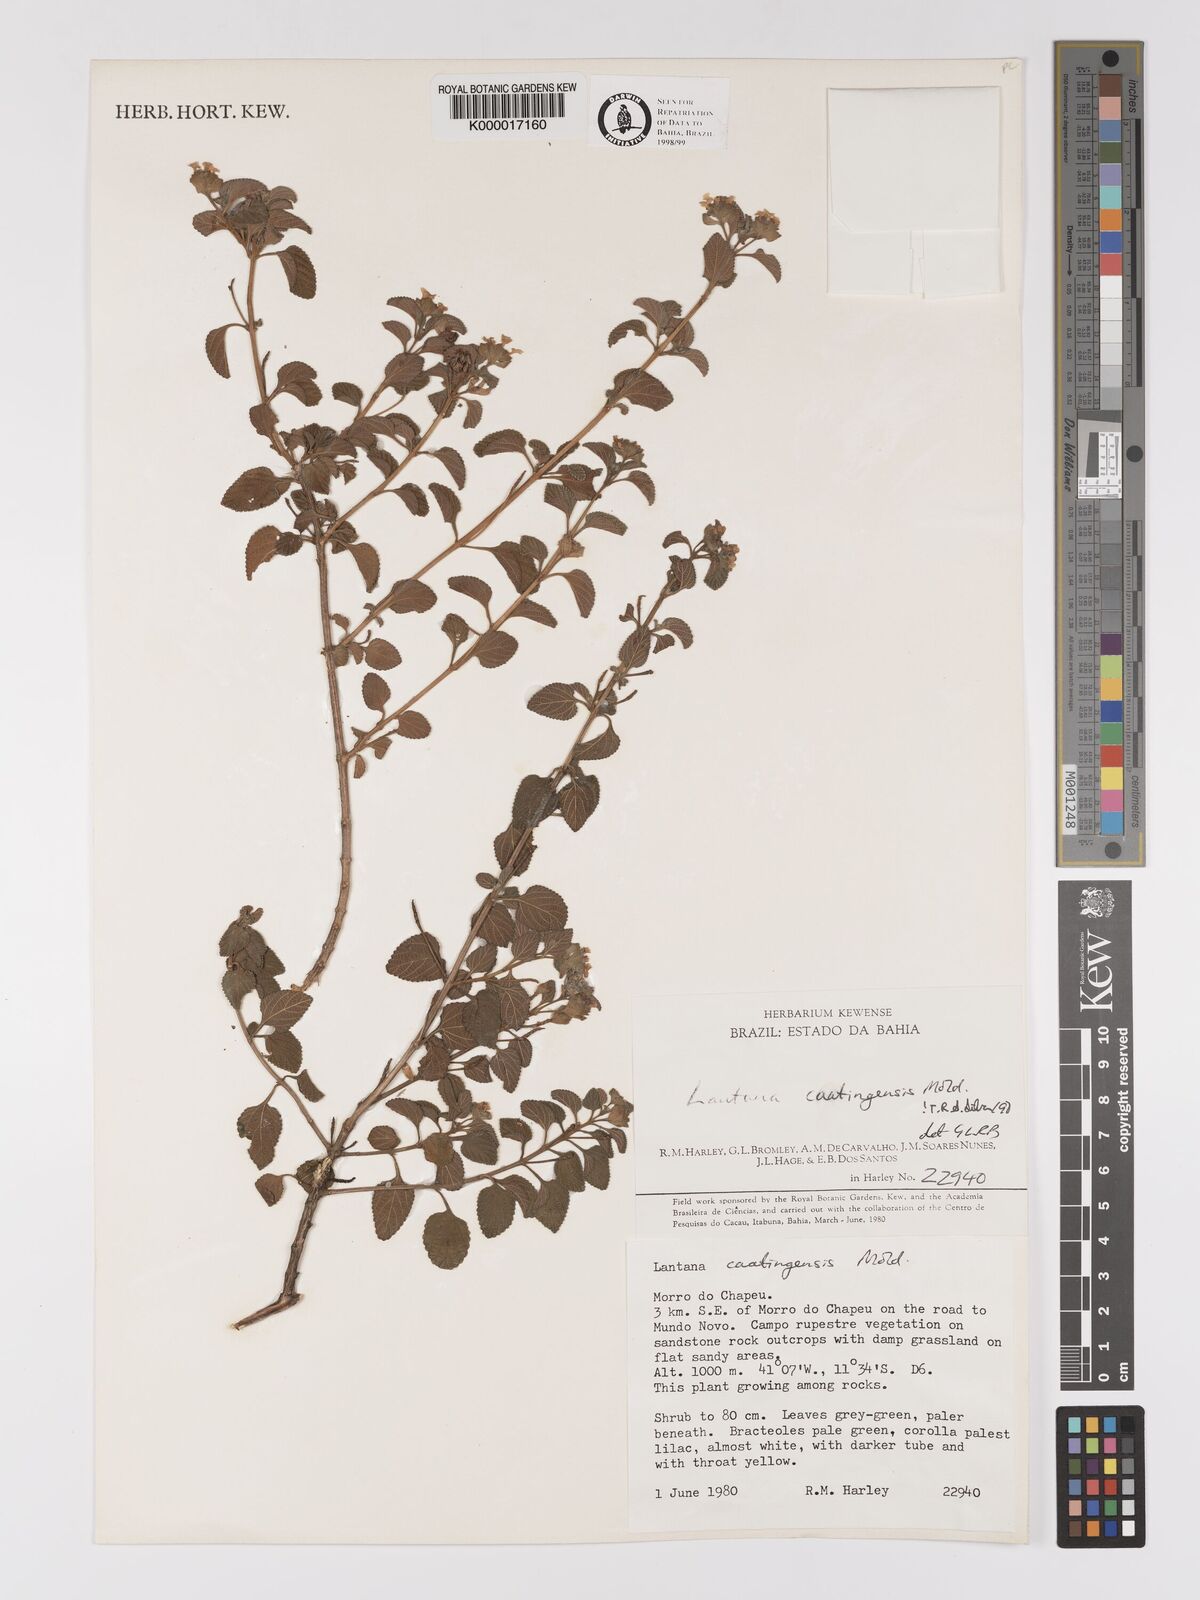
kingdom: Plantae
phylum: Tracheophyta
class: Magnoliopsida
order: Lamiales
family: Verbenaceae
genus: Lantana
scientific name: Lantana caatingensis
